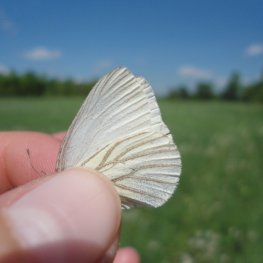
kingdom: Animalia
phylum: Arthropoda
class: Insecta
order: Lepidoptera
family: Pieridae
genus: Pieris
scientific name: Pieris oleracea
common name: Mustard White
